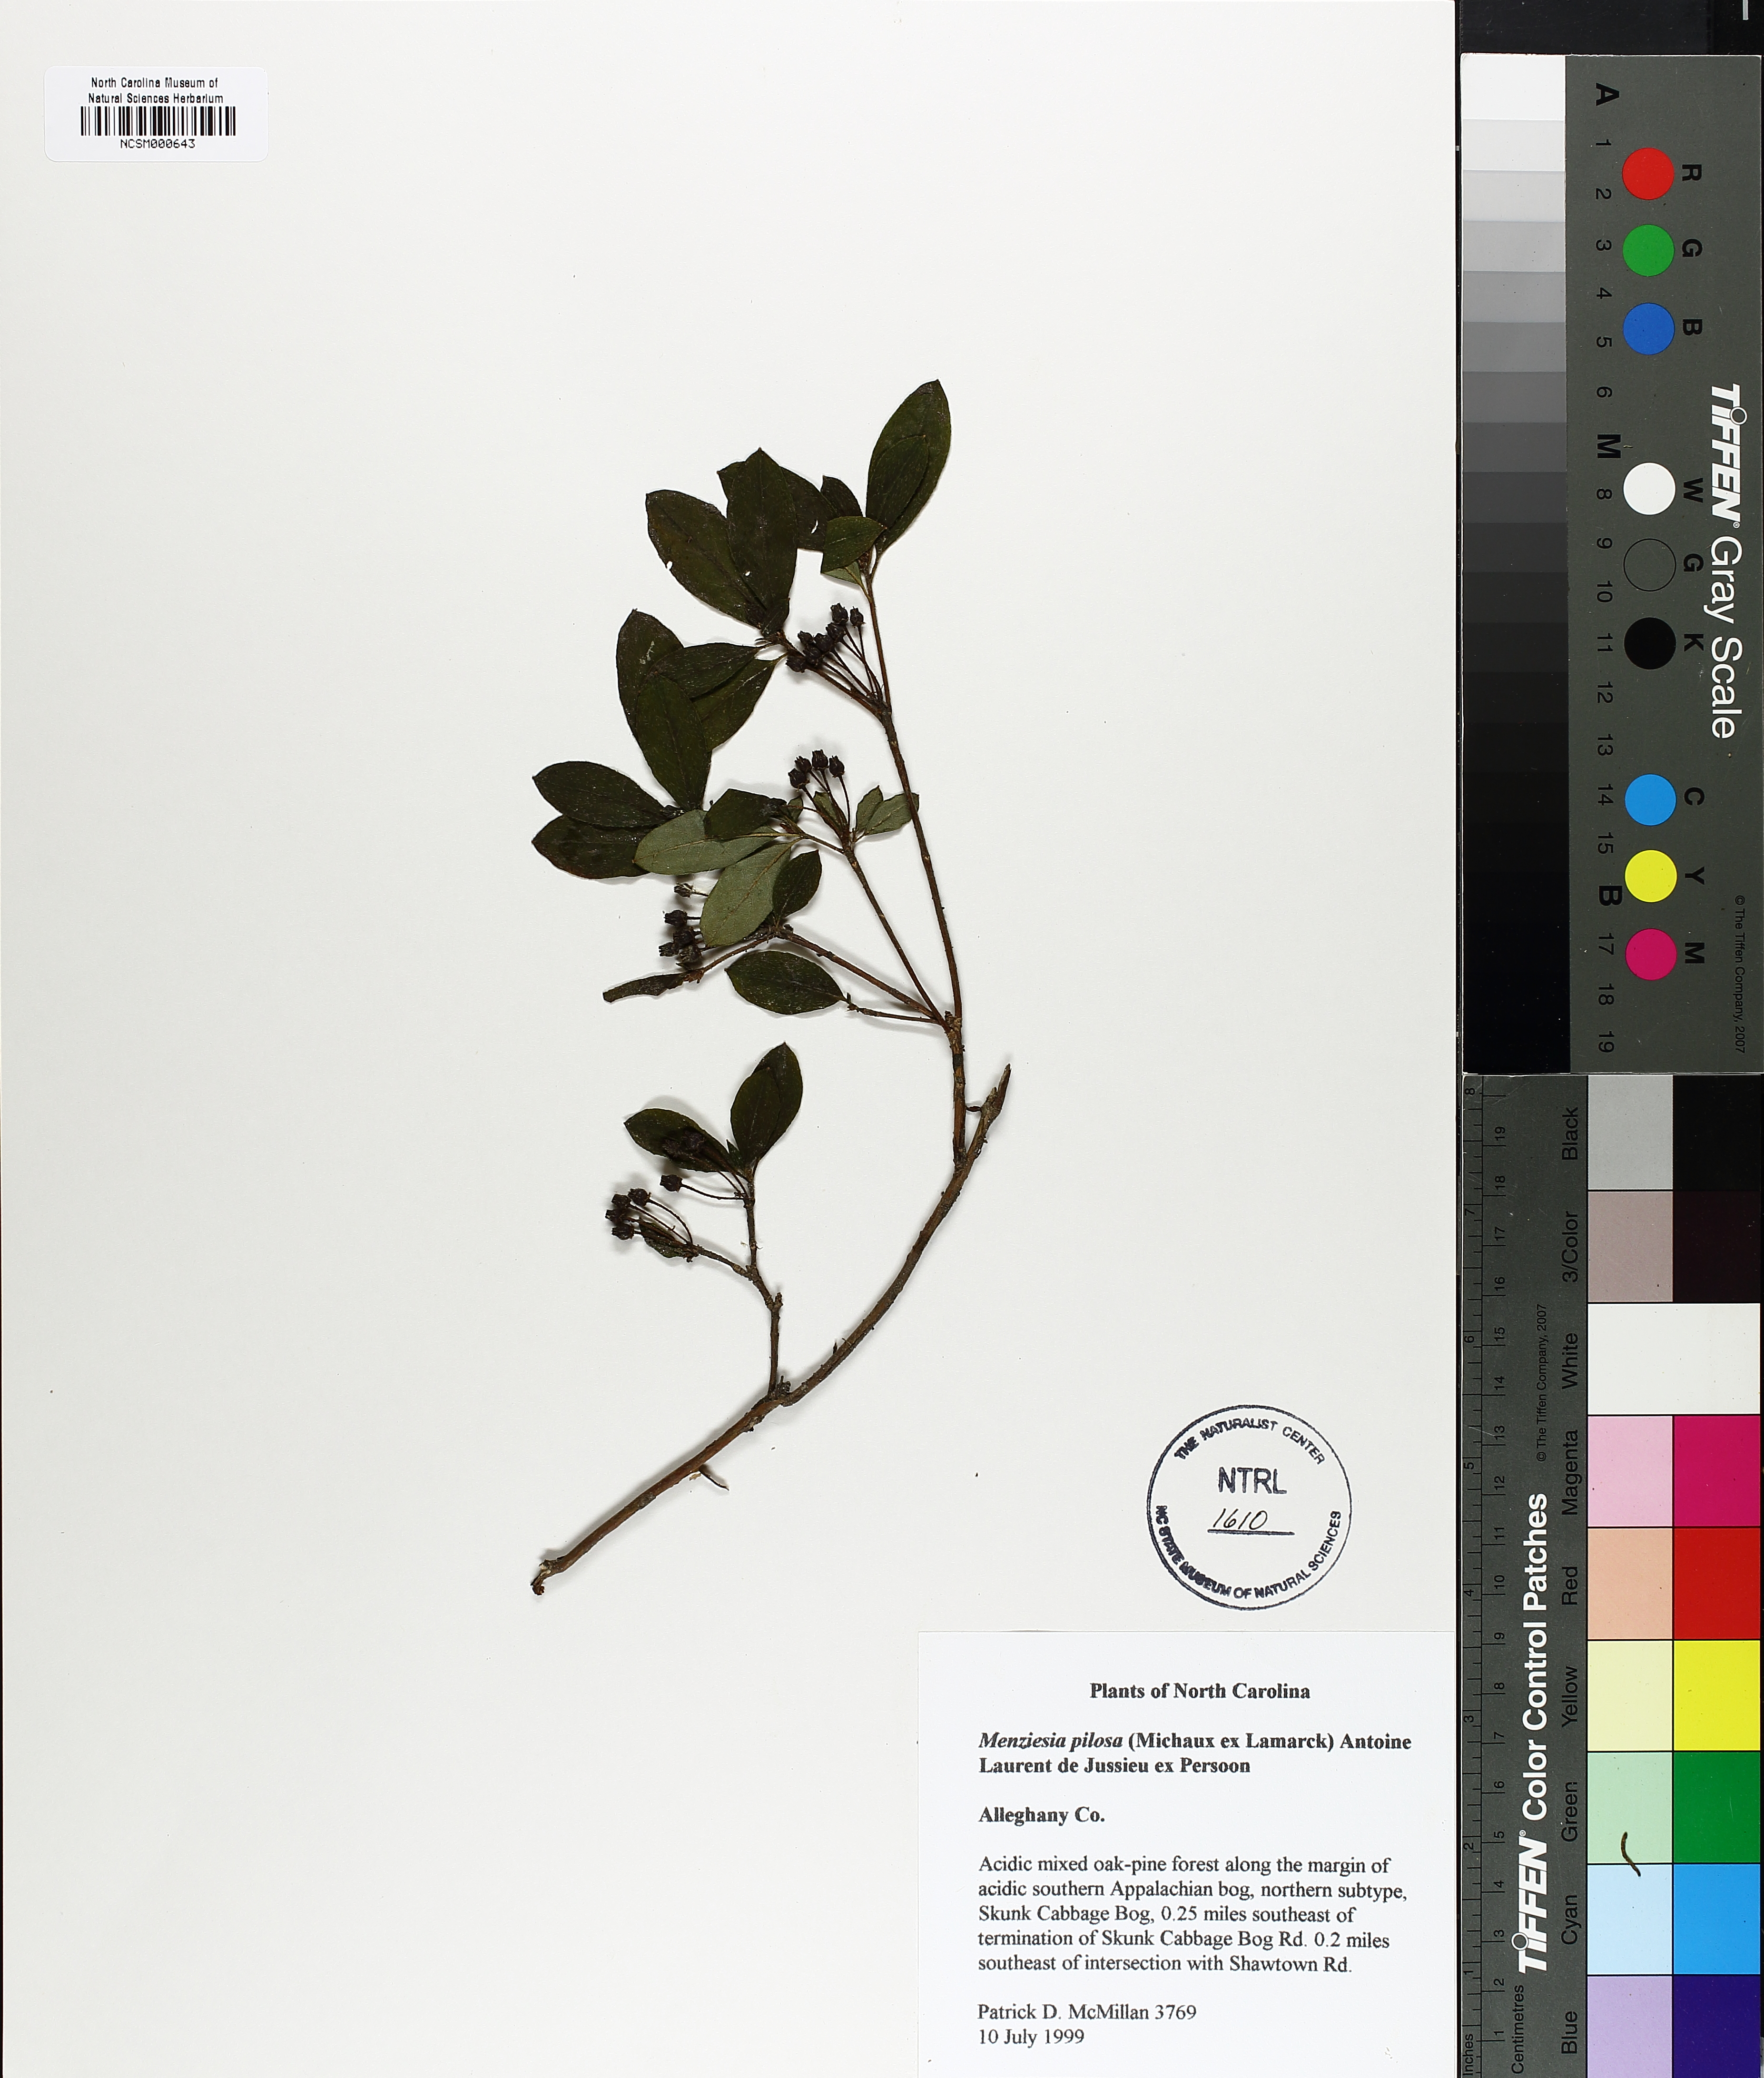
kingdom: Plantae
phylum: Tracheophyta
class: Magnoliopsida
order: Ericales
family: Ericaceae
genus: Rhododendron
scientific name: Rhododendron pilosum
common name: Hairy minniebush
